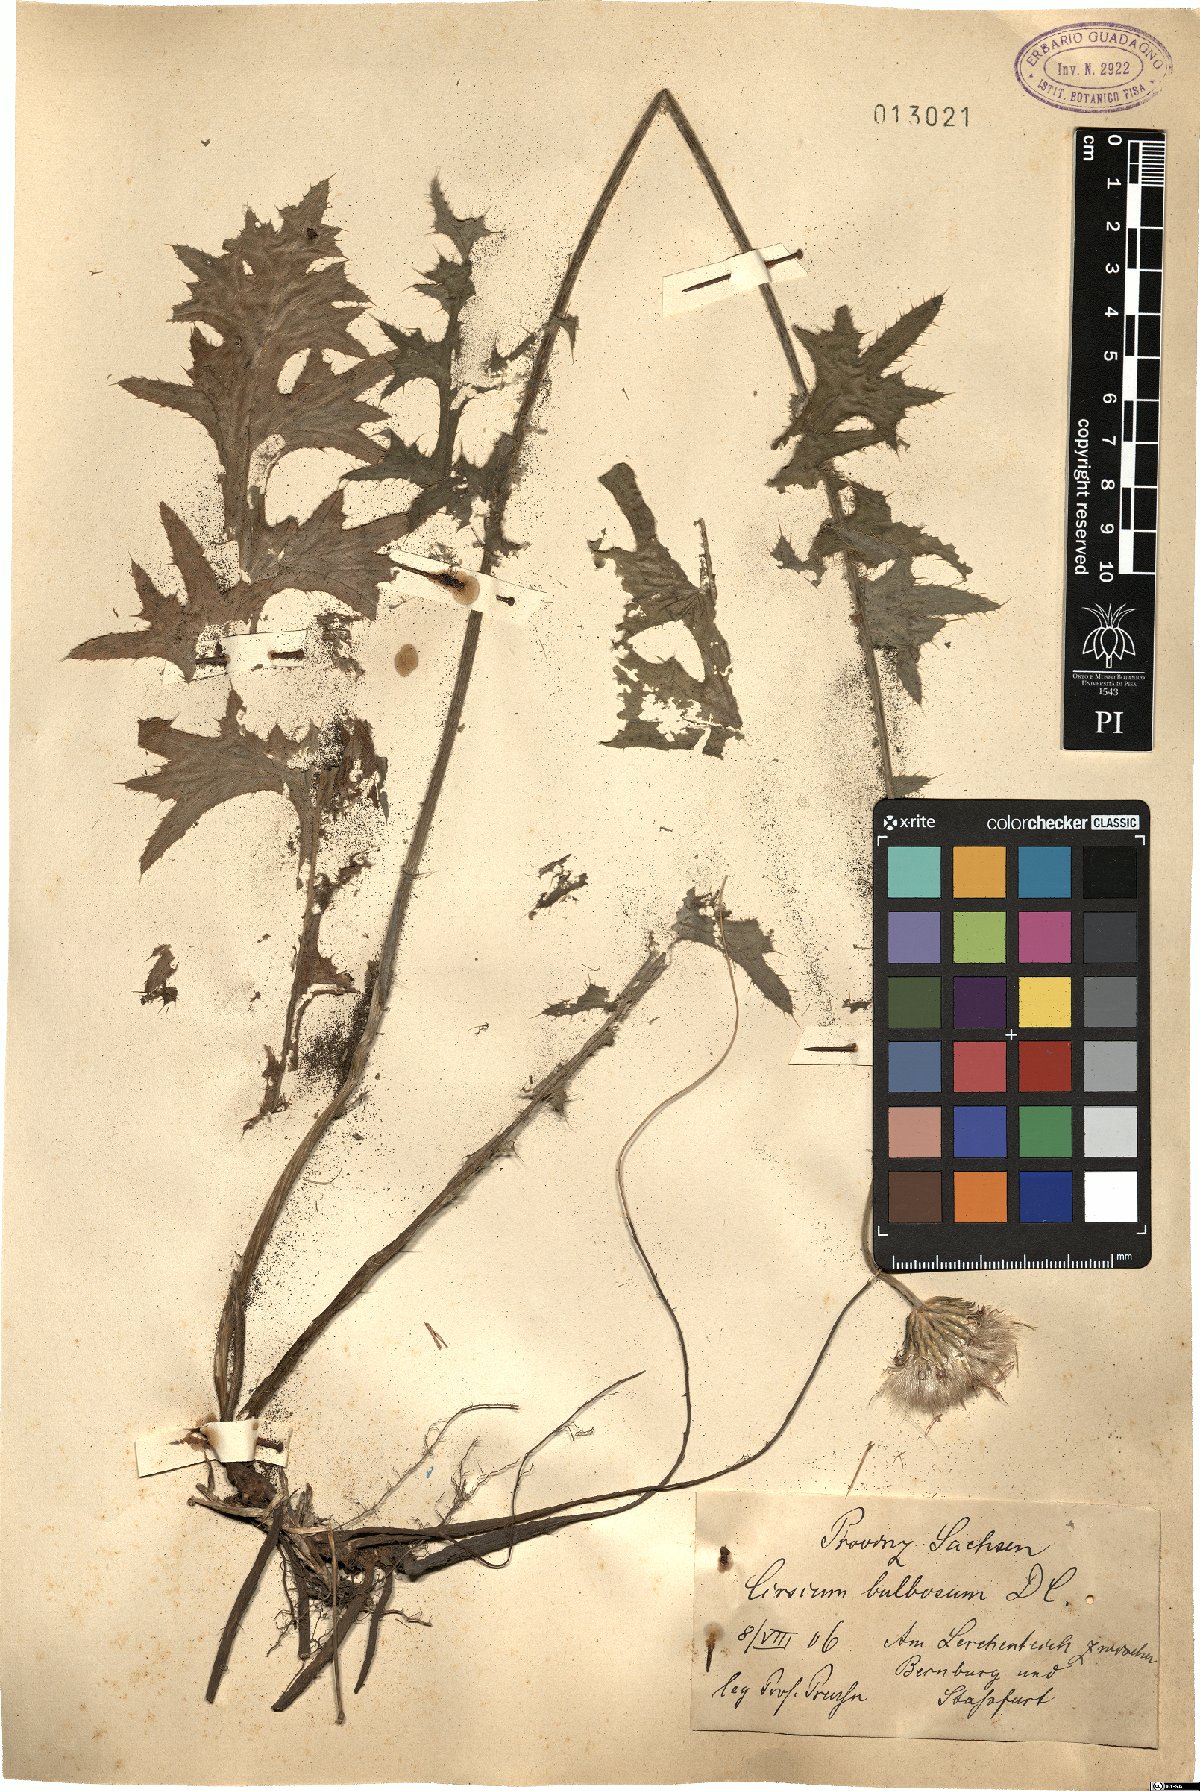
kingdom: Plantae
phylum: Tracheophyta
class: Magnoliopsida
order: Asterales
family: Asteraceae
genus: Cirsium
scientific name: Cirsium tuberosum
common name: Tuberous thistle
